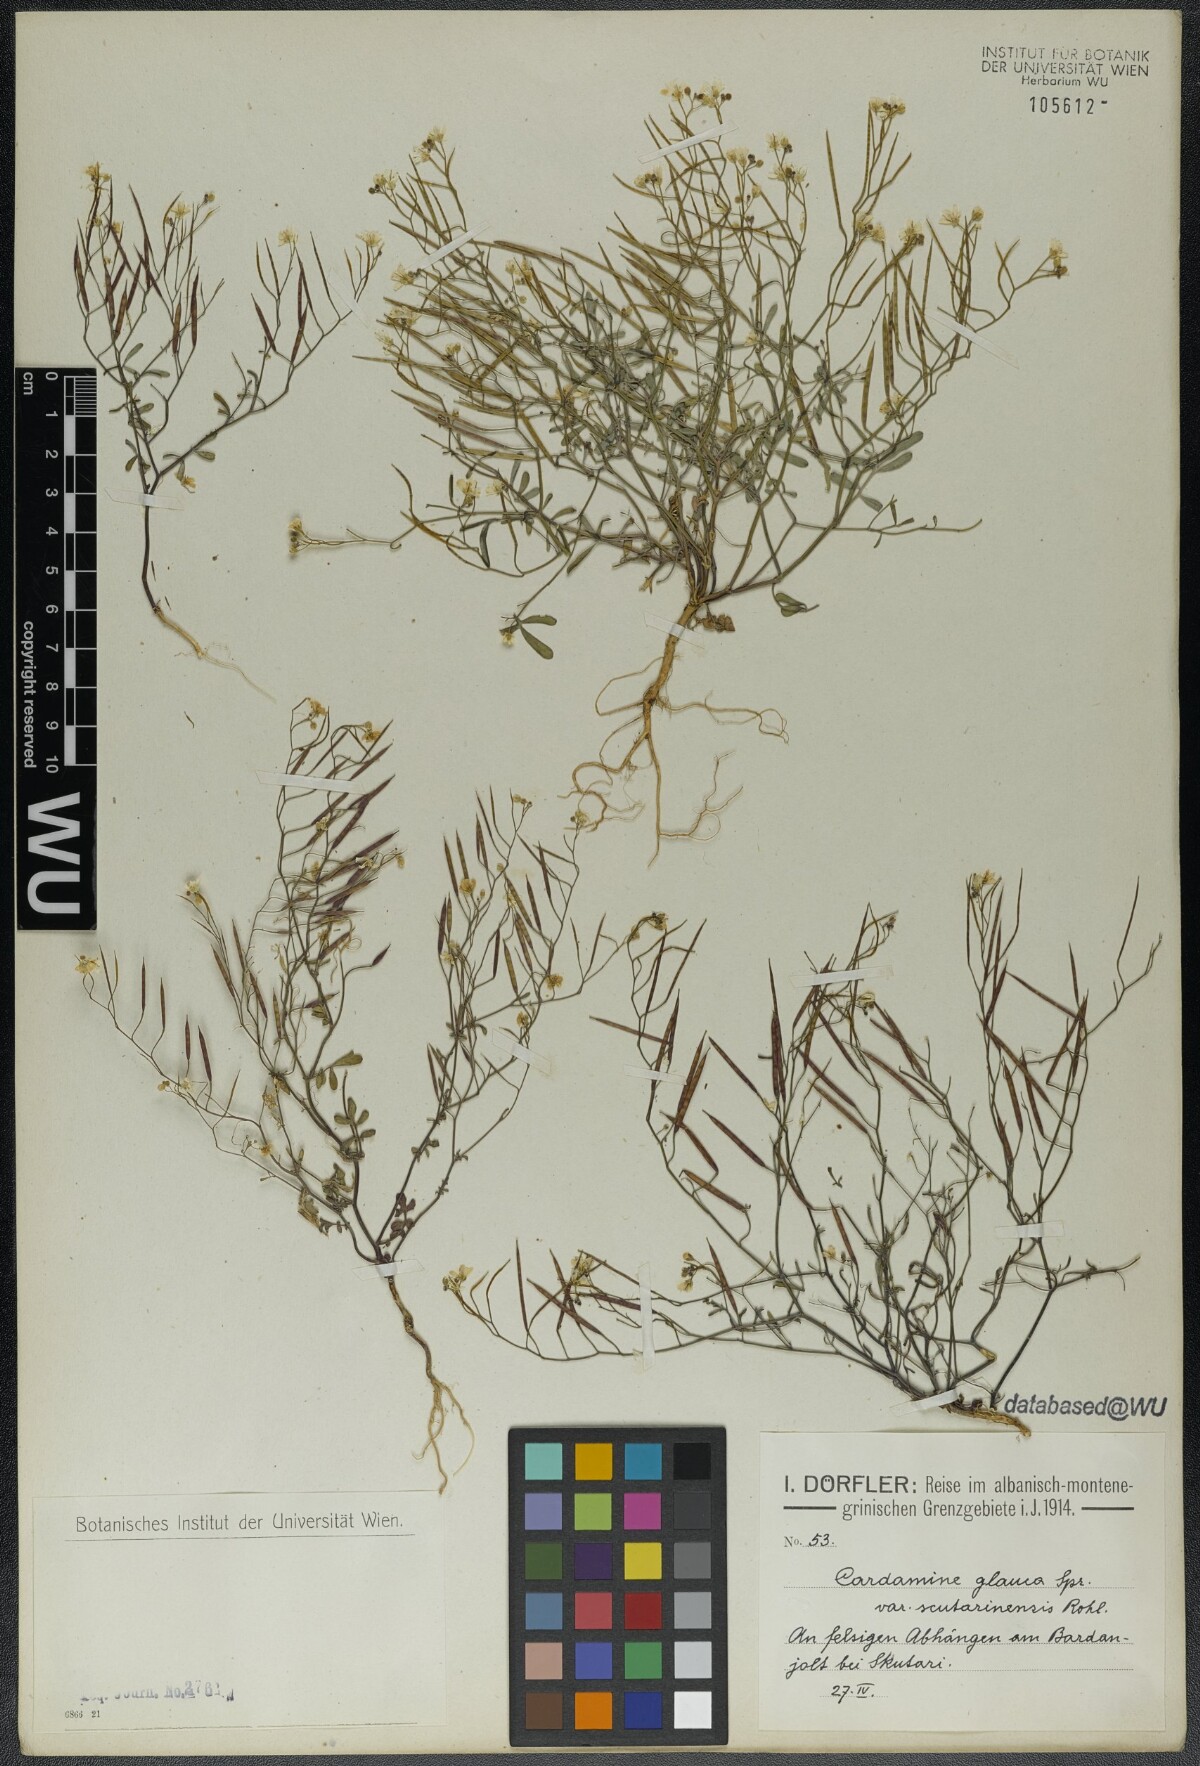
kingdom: Plantae
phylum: Tracheophyta
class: Magnoliopsida
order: Brassicales
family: Brassicaceae
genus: Cardamine
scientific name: Cardamine glauca
